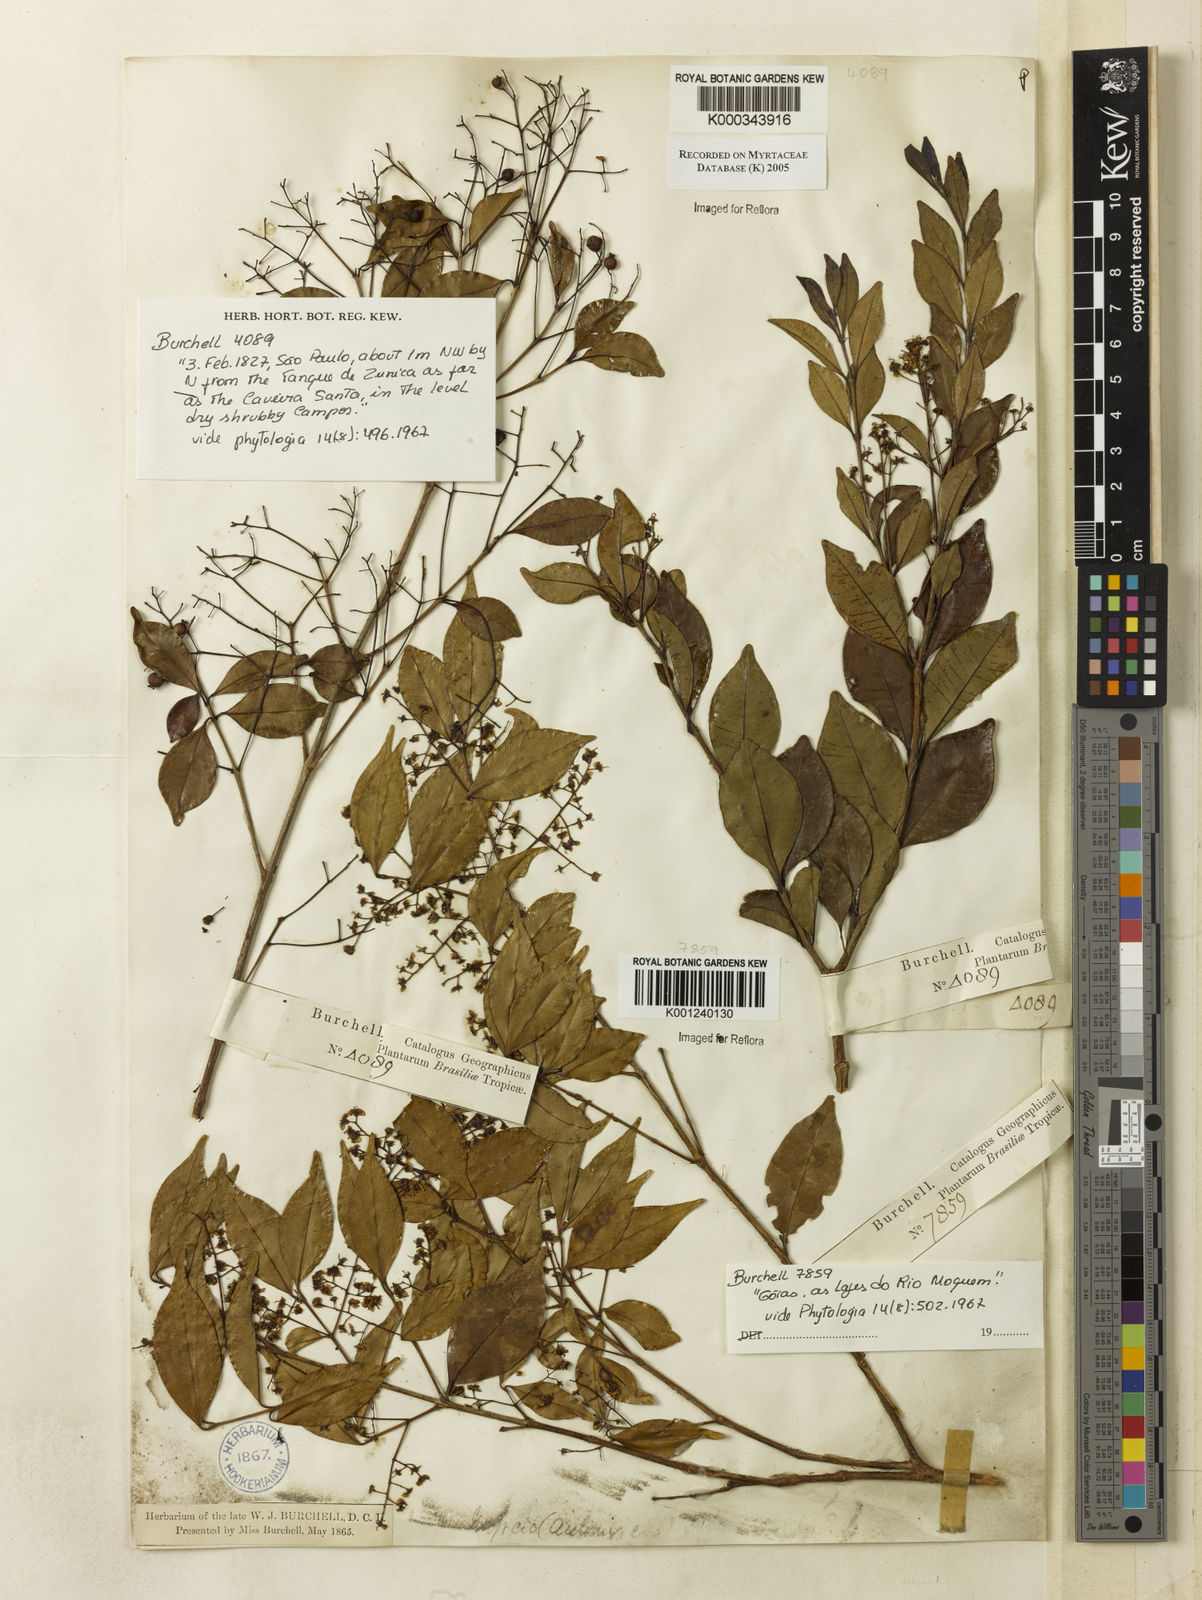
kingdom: Plantae
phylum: Tracheophyta
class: Magnoliopsida
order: Myrtales
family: Myrtaceae
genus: Myrcia
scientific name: Myrcia multiflora
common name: Pedra hume
